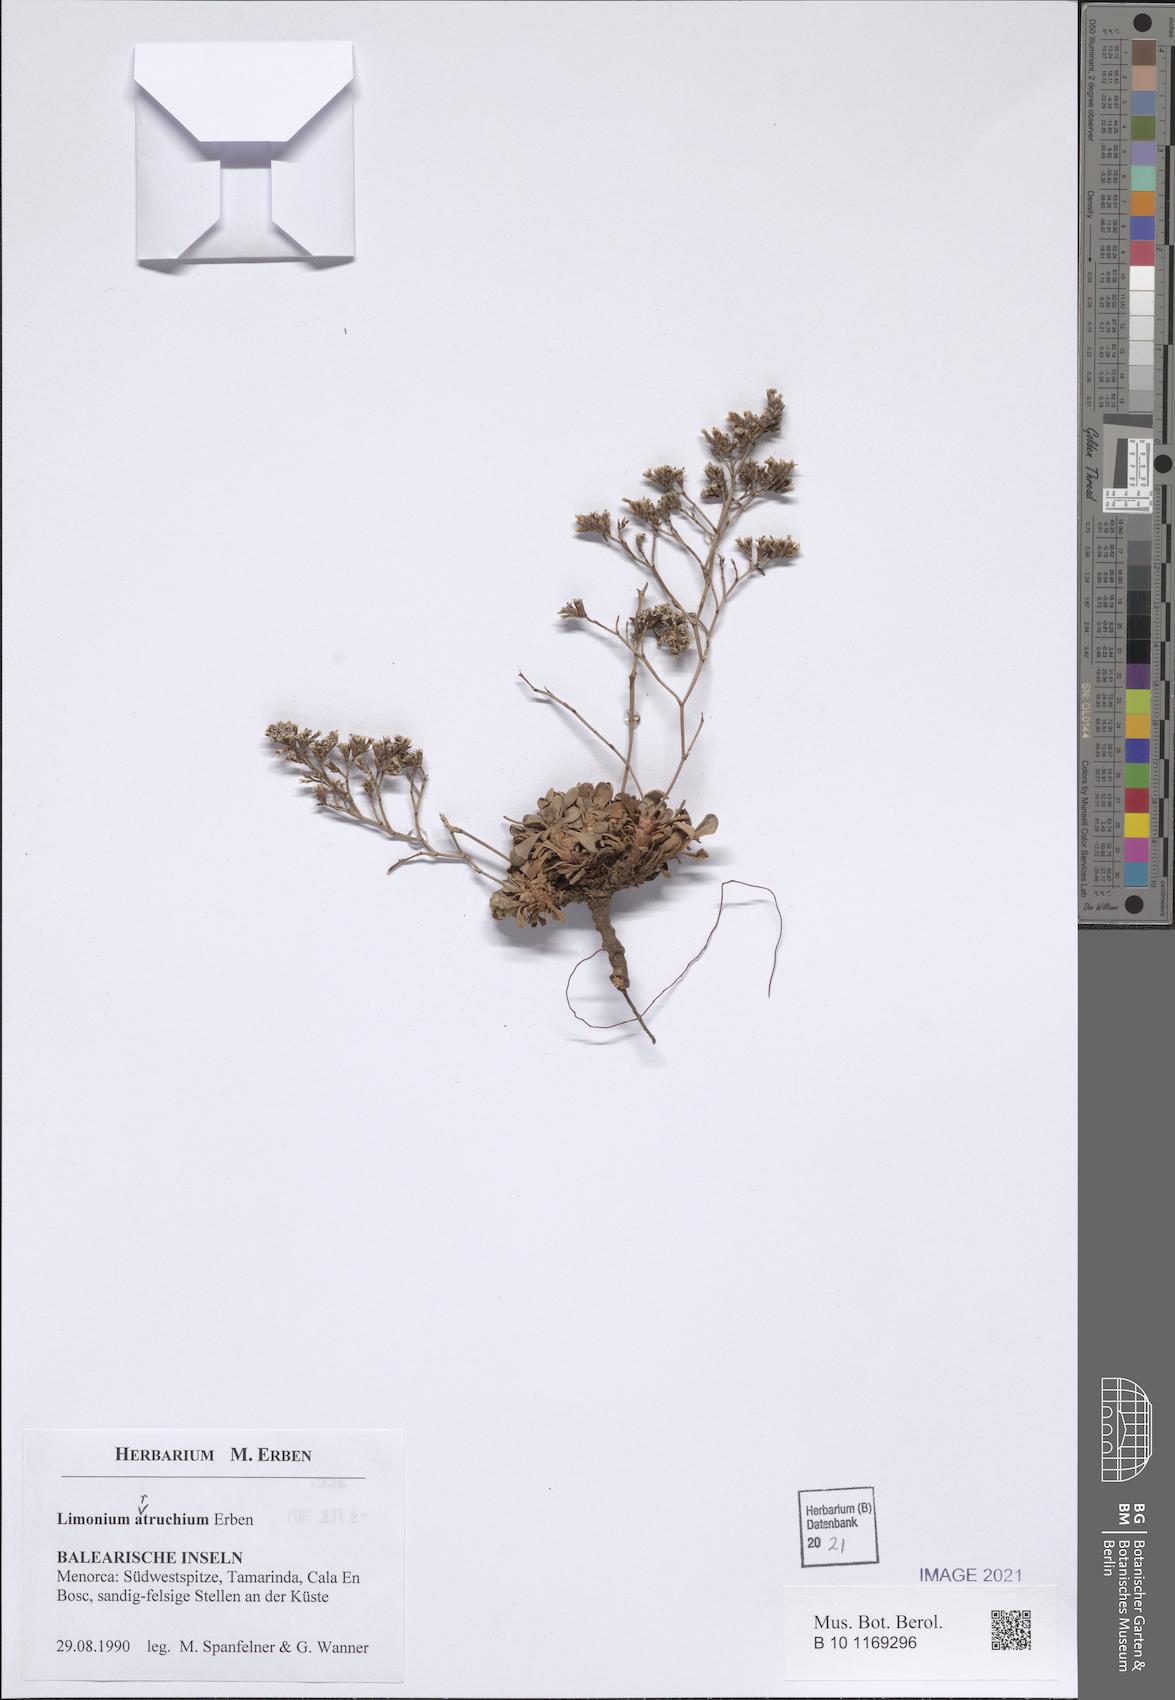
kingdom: Plantae
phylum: Tracheophyta
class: Magnoliopsida
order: Caryophyllales
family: Plumbaginaceae
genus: Limonium
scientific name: Limonium artruchium
